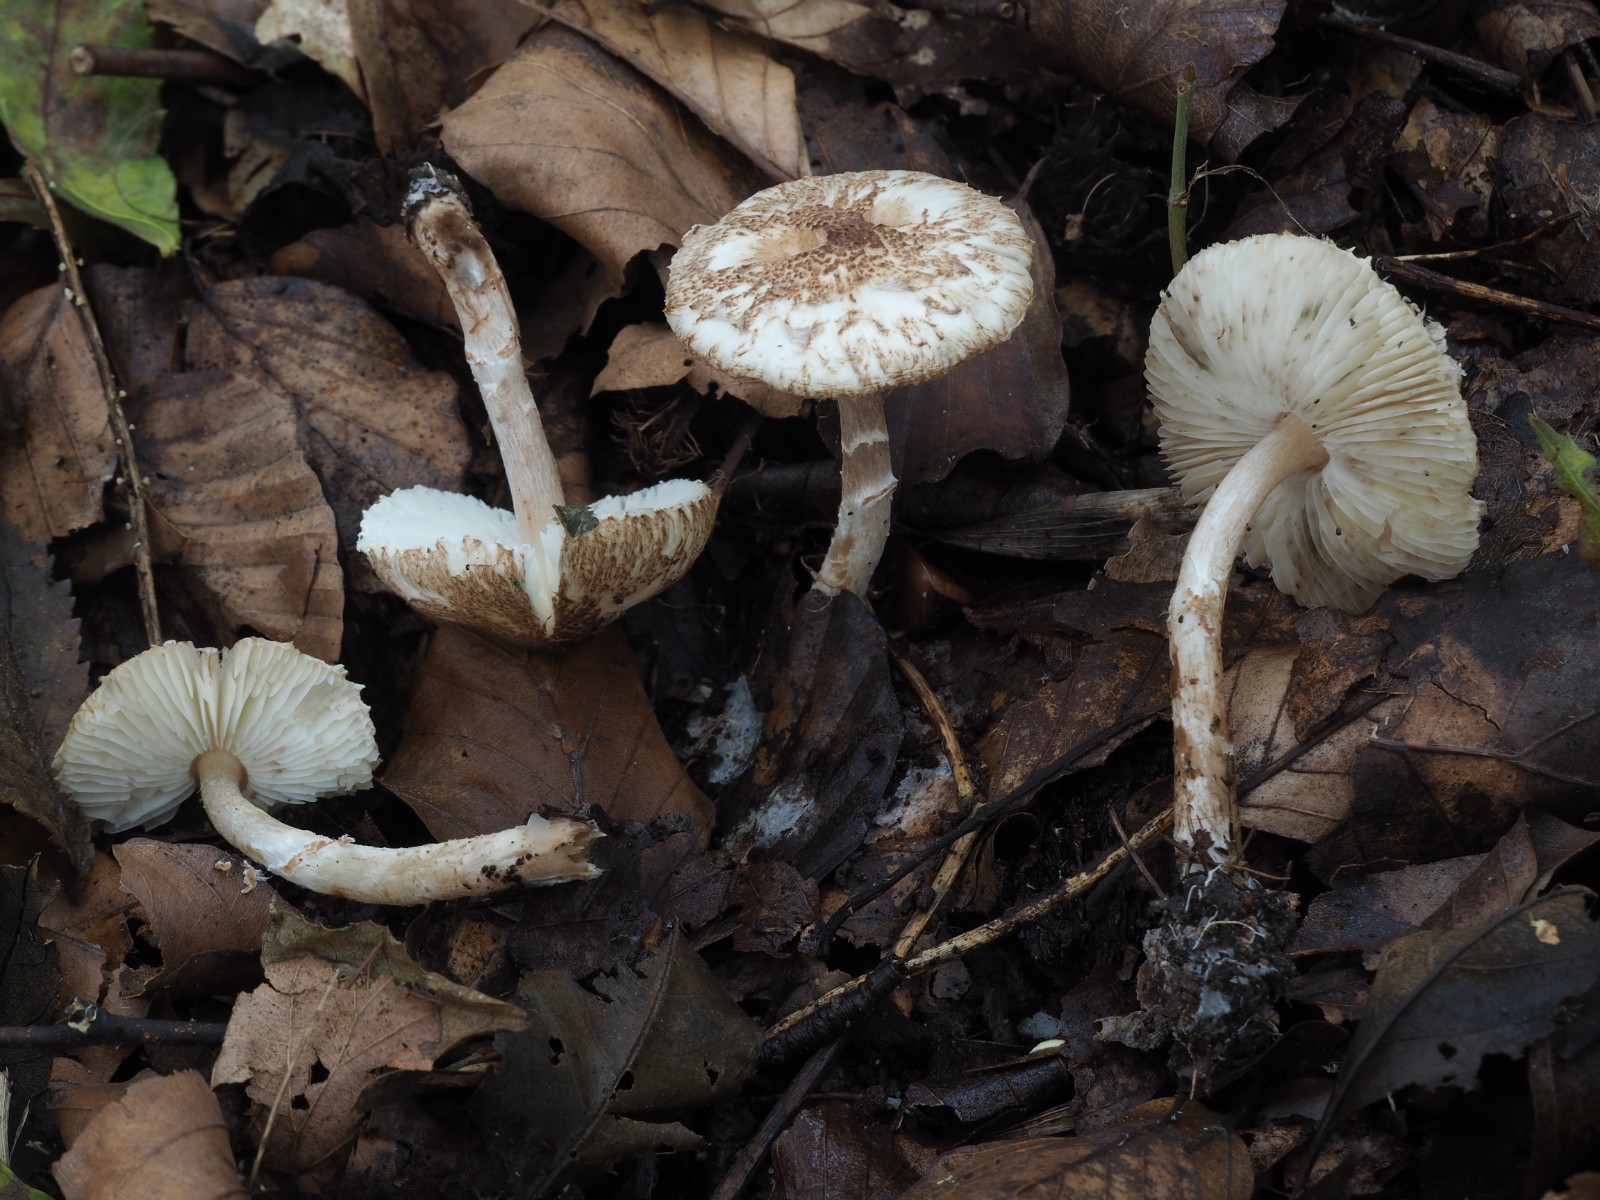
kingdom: Fungi
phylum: Basidiomycota
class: Agaricomycetes
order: Agaricales
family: Agaricaceae
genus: Lepiota
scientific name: Lepiota subgracilis
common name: elegant parasolhat
